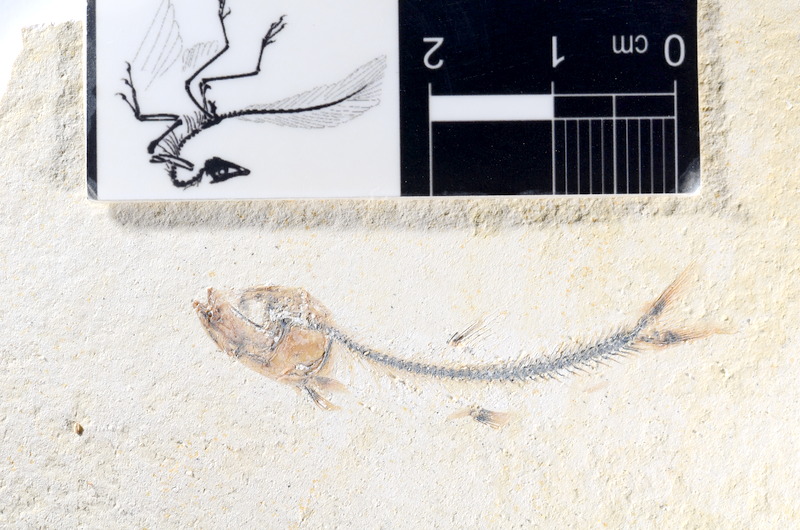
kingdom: Animalia
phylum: Chordata
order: Salmoniformes
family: Orthogonikleithridae
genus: Orthogonikleithrus
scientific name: Orthogonikleithrus hoelli
